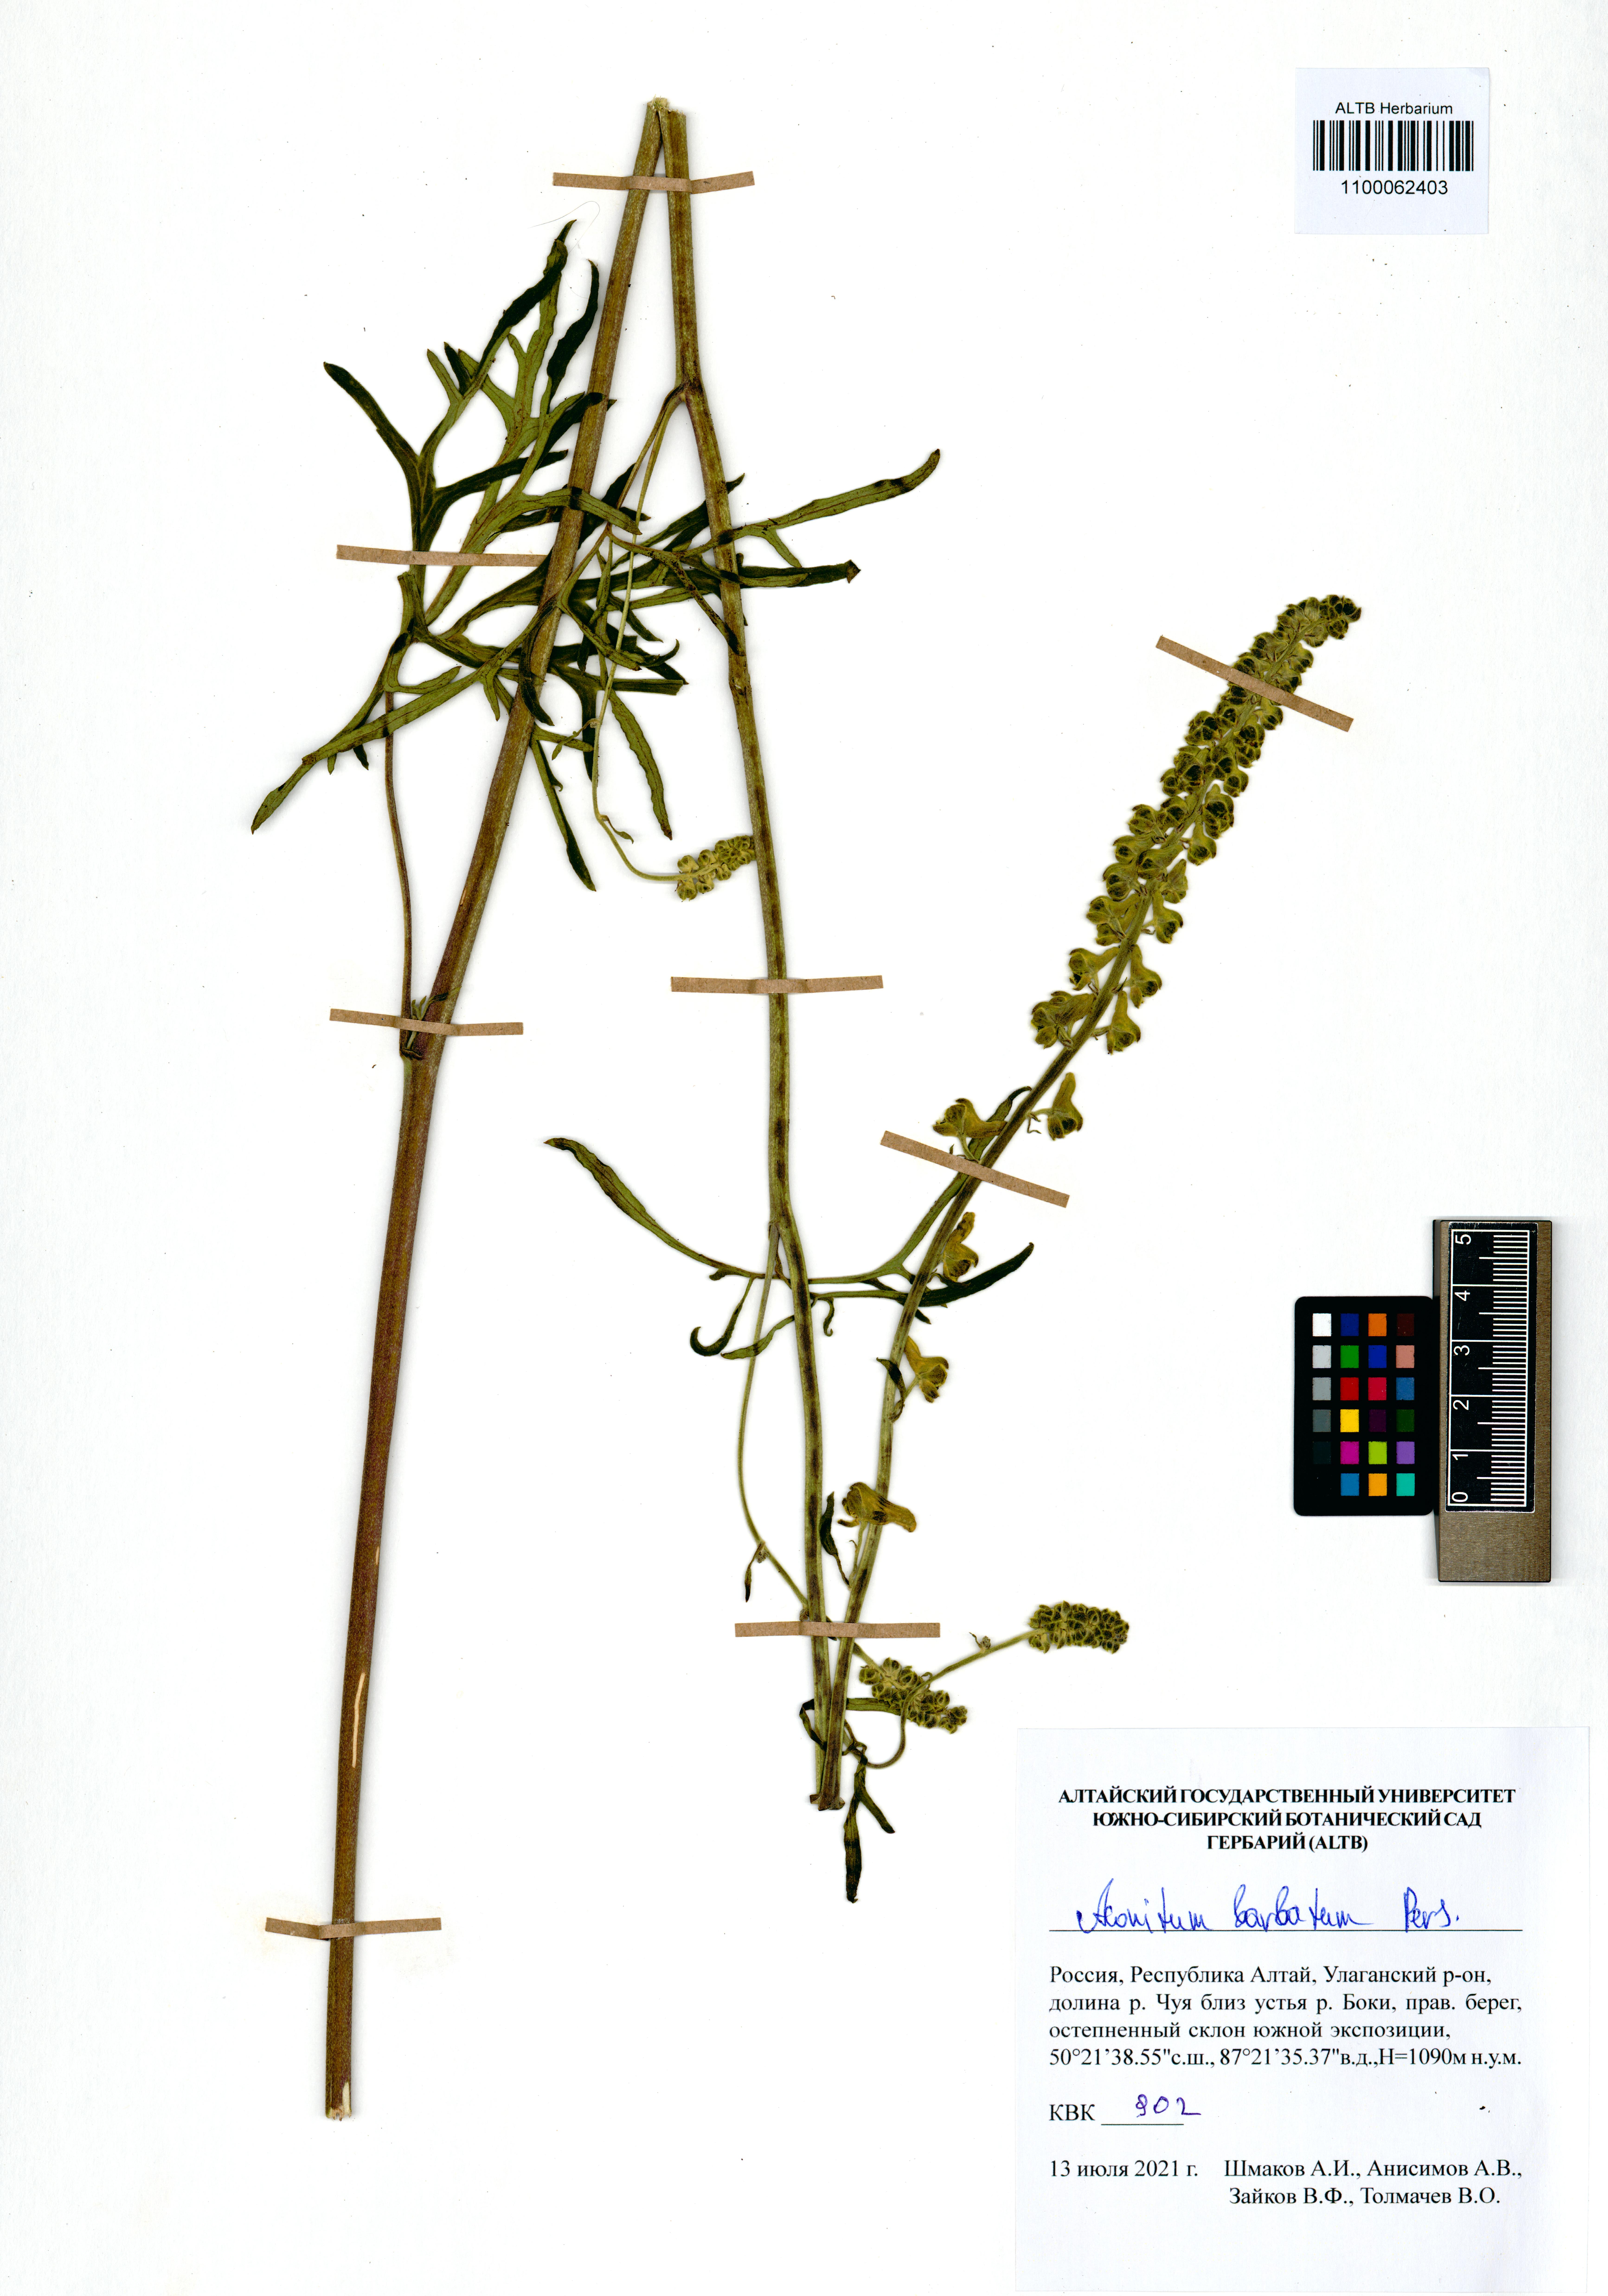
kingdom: Plantae
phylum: Tracheophyta
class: Magnoliopsida
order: Ranunculales
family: Ranunculaceae
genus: Aconitum
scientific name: Aconitum barbatum
